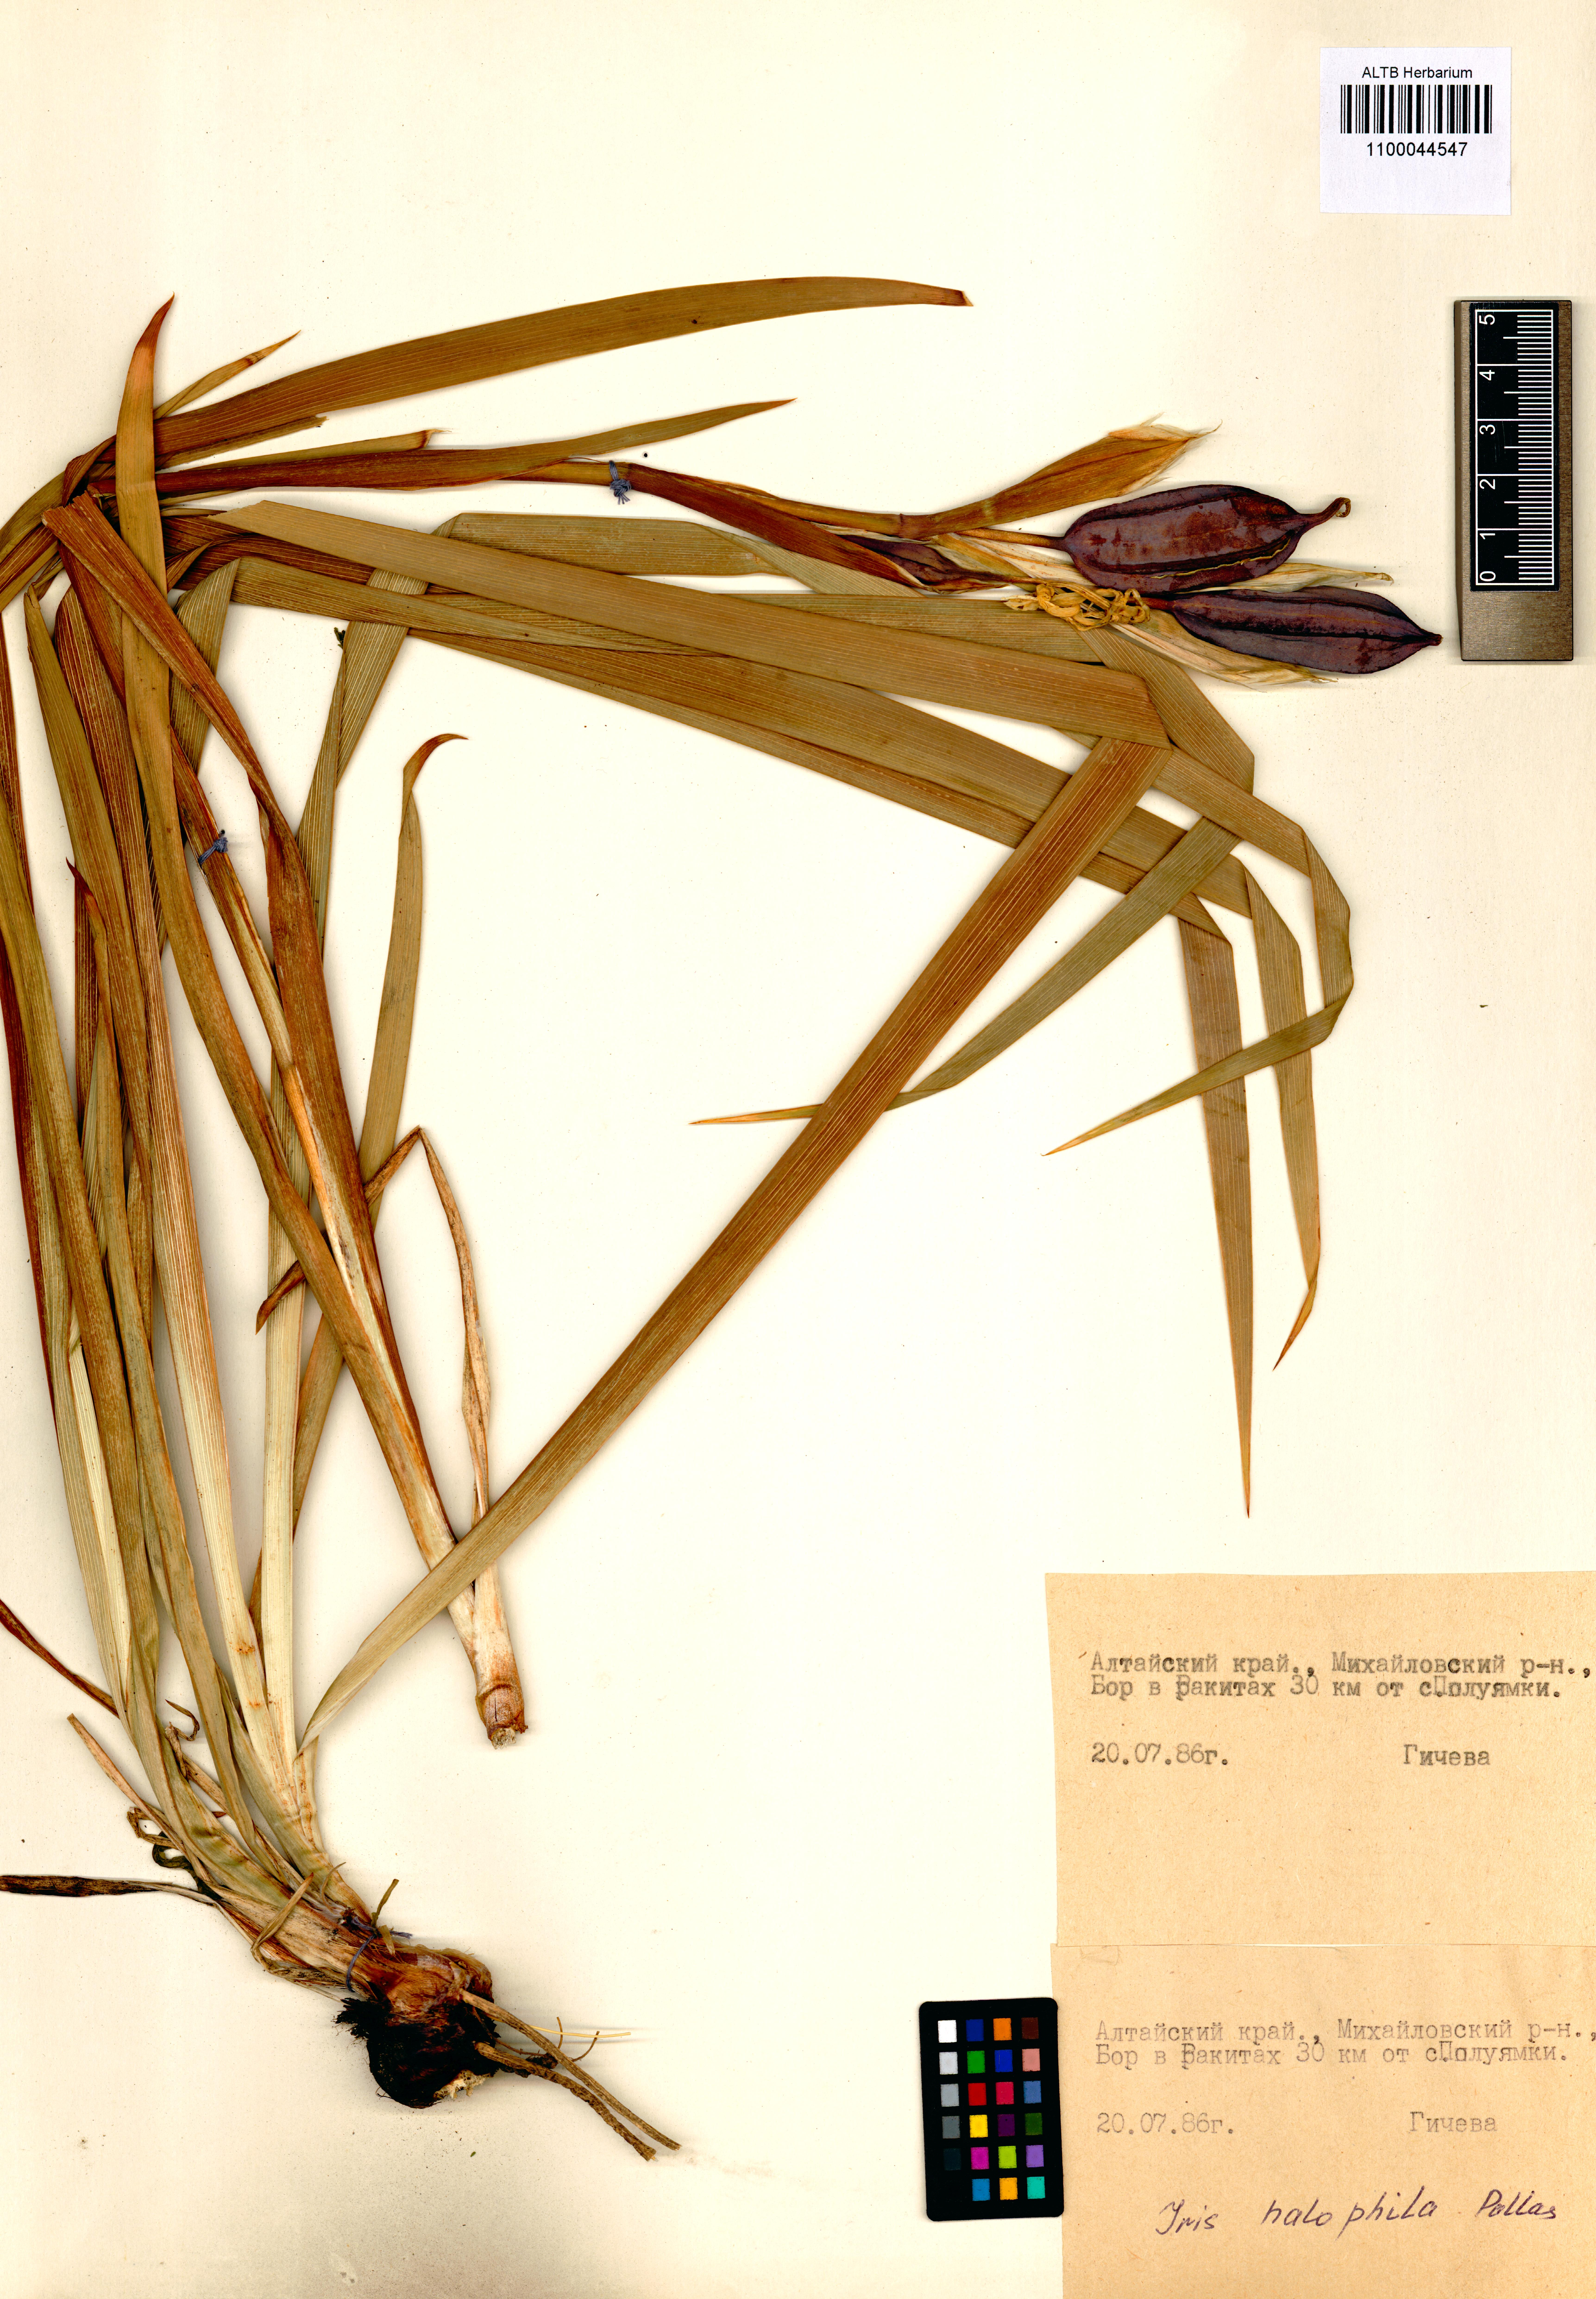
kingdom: Plantae
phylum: Tracheophyta
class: Liliopsida
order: Asparagales
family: Iridaceae
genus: Iris
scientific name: Iris halophila
